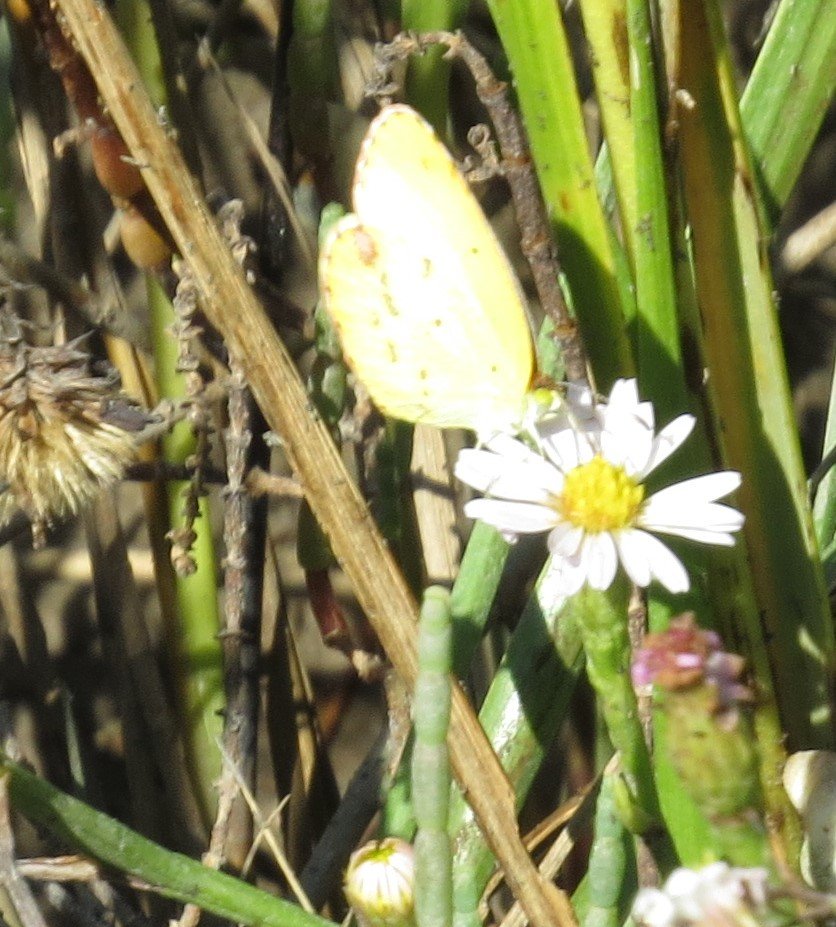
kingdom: Animalia
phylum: Arthropoda
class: Insecta
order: Lepidoptera
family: Pieridae
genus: Pyrisitia
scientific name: Pyrisitia lisa
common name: Little Yellow
